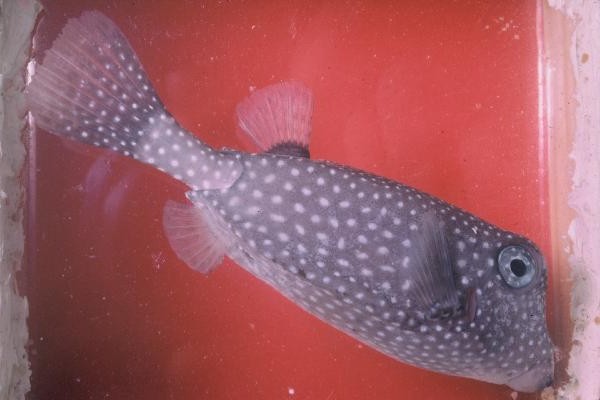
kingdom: Animalia
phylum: Chordata
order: Tetraodontiformes
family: Ostraciidae
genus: Ostracion
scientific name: Ostracion meleagris
